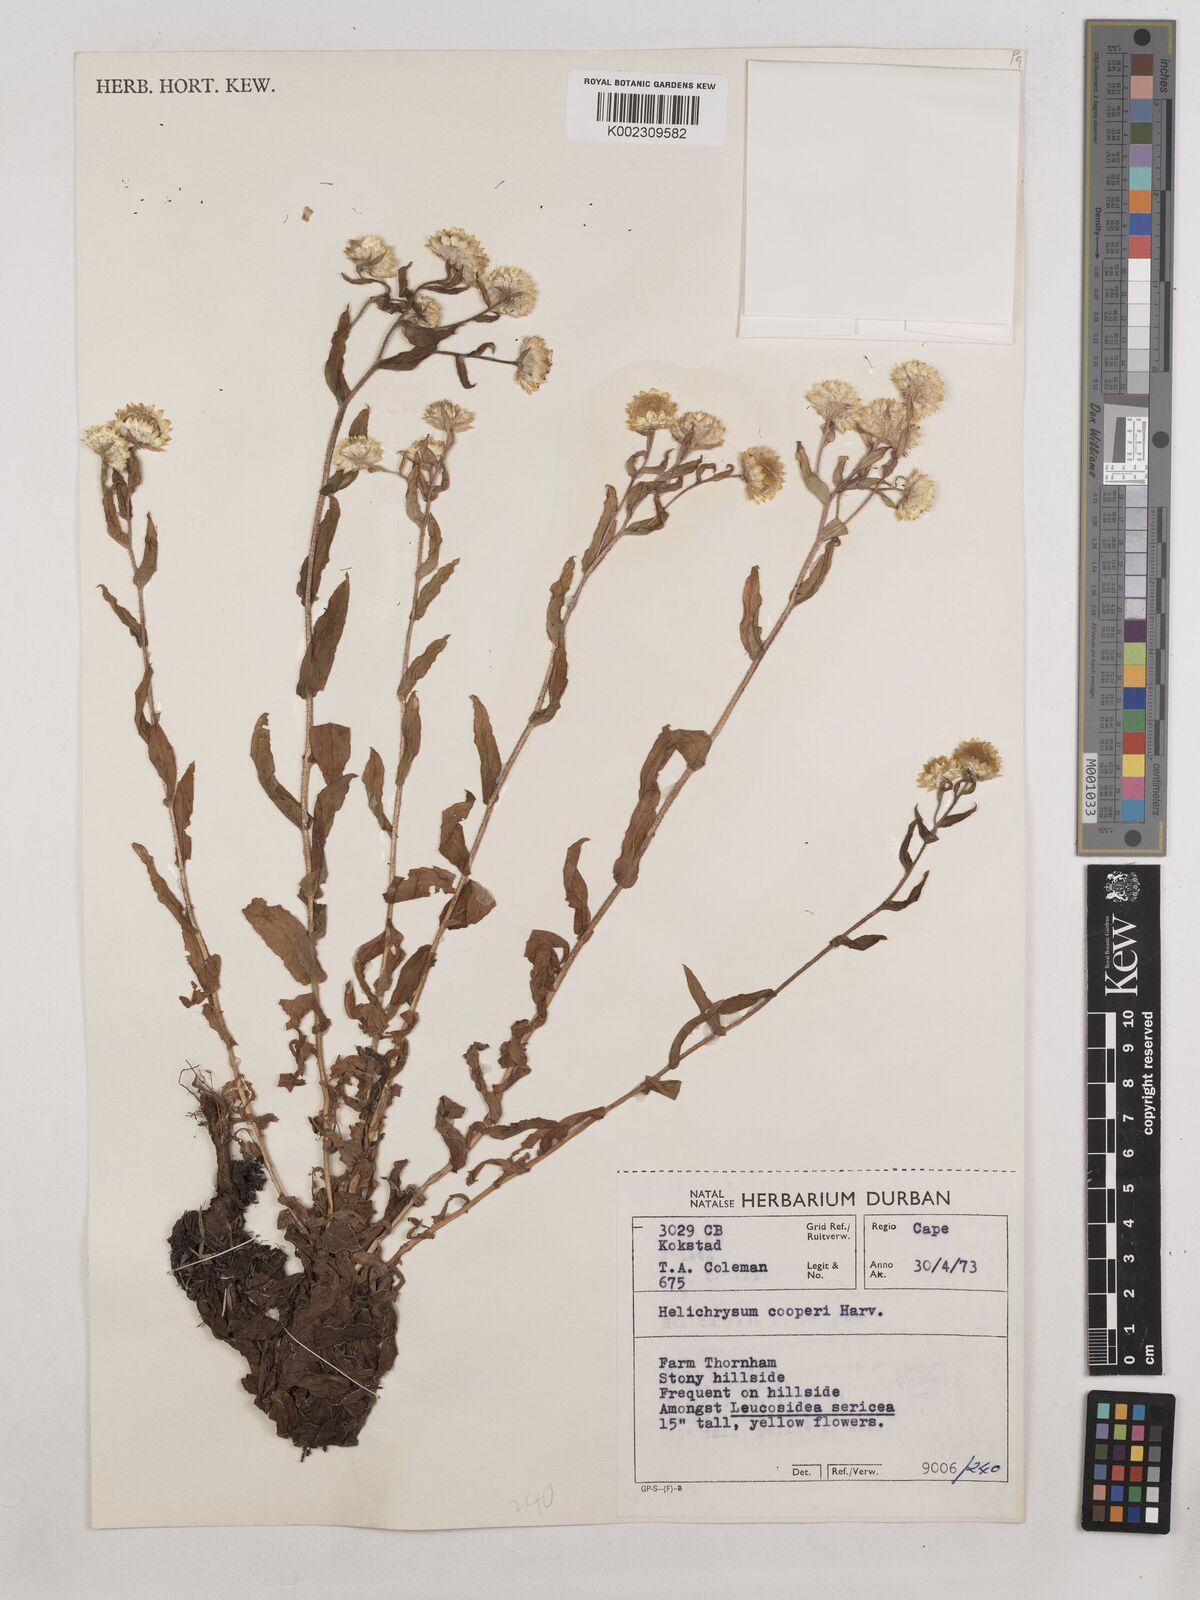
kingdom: Plantae
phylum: Tracheophyta
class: Magnoliopsida
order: Asterales
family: Asteraceae
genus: Helichrysum
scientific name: Helichrysum cooperi
